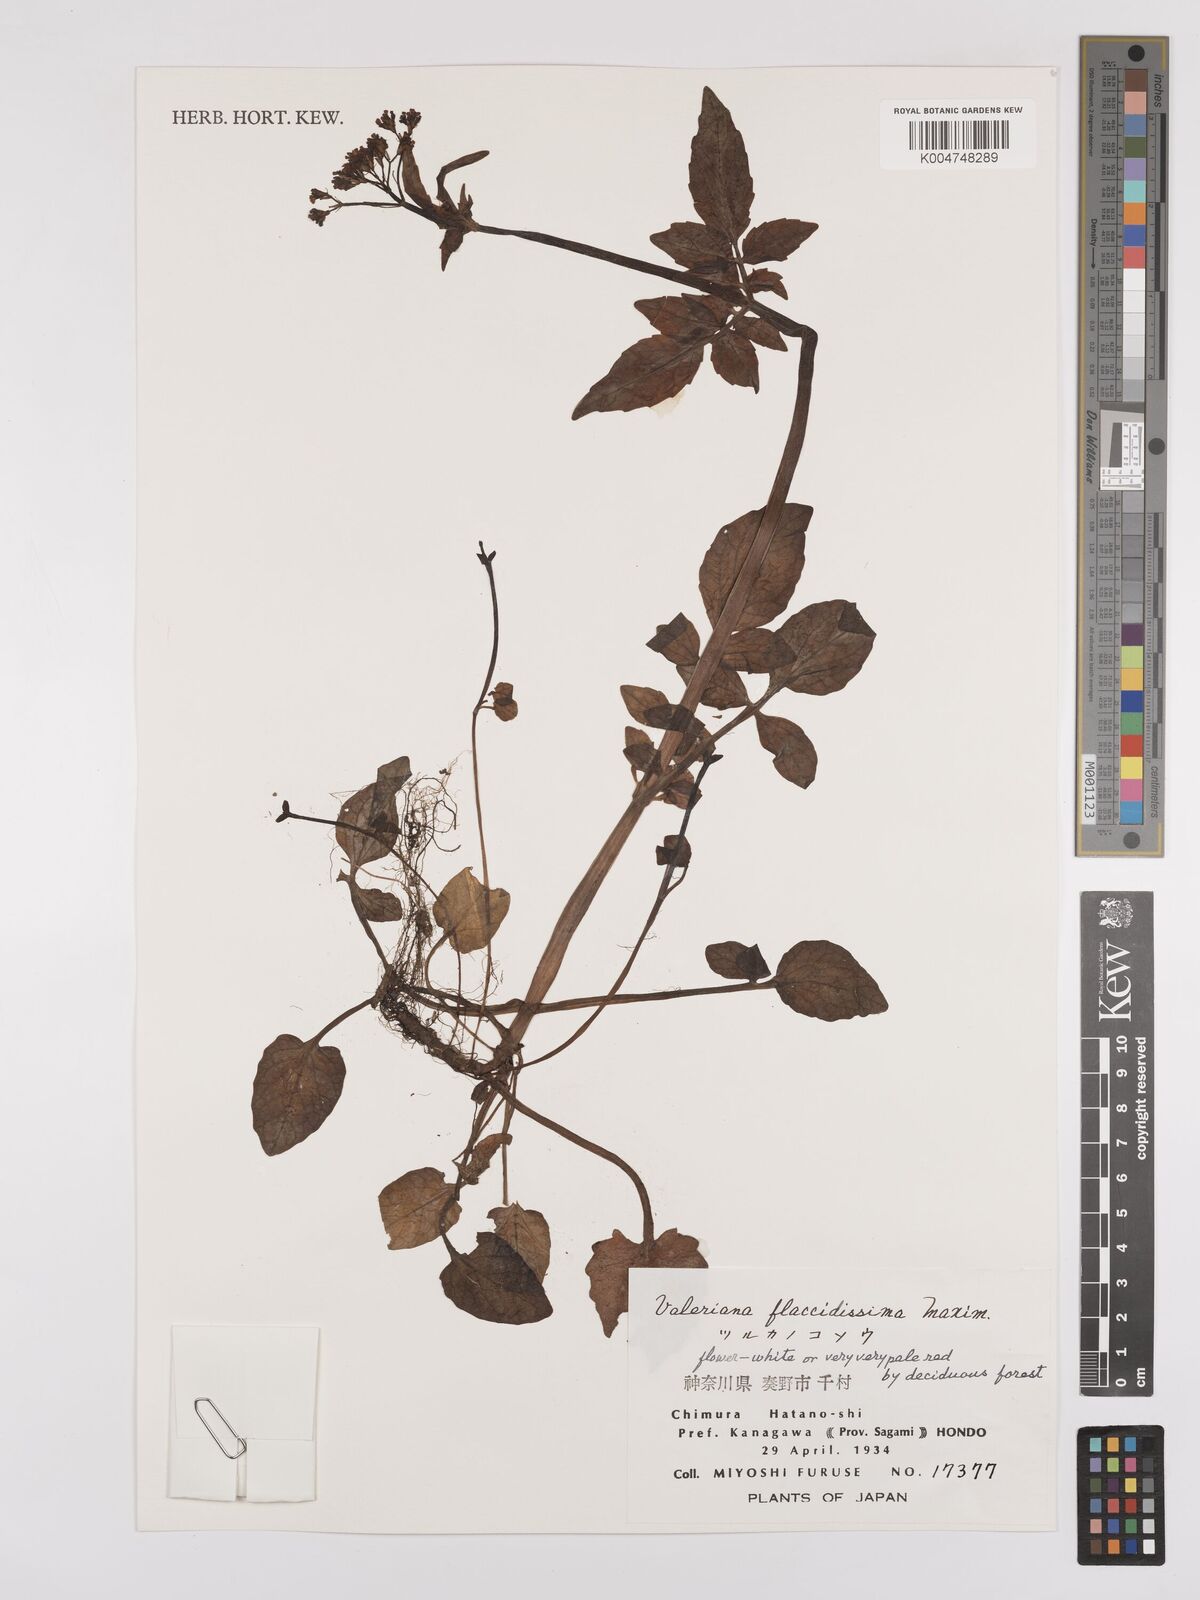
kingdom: Plantae
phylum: Tracheophyta
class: Magnoliopsida
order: Dipsacales
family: Caprifoliaceae
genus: Valeriana
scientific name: Valeriana flaccidissima
